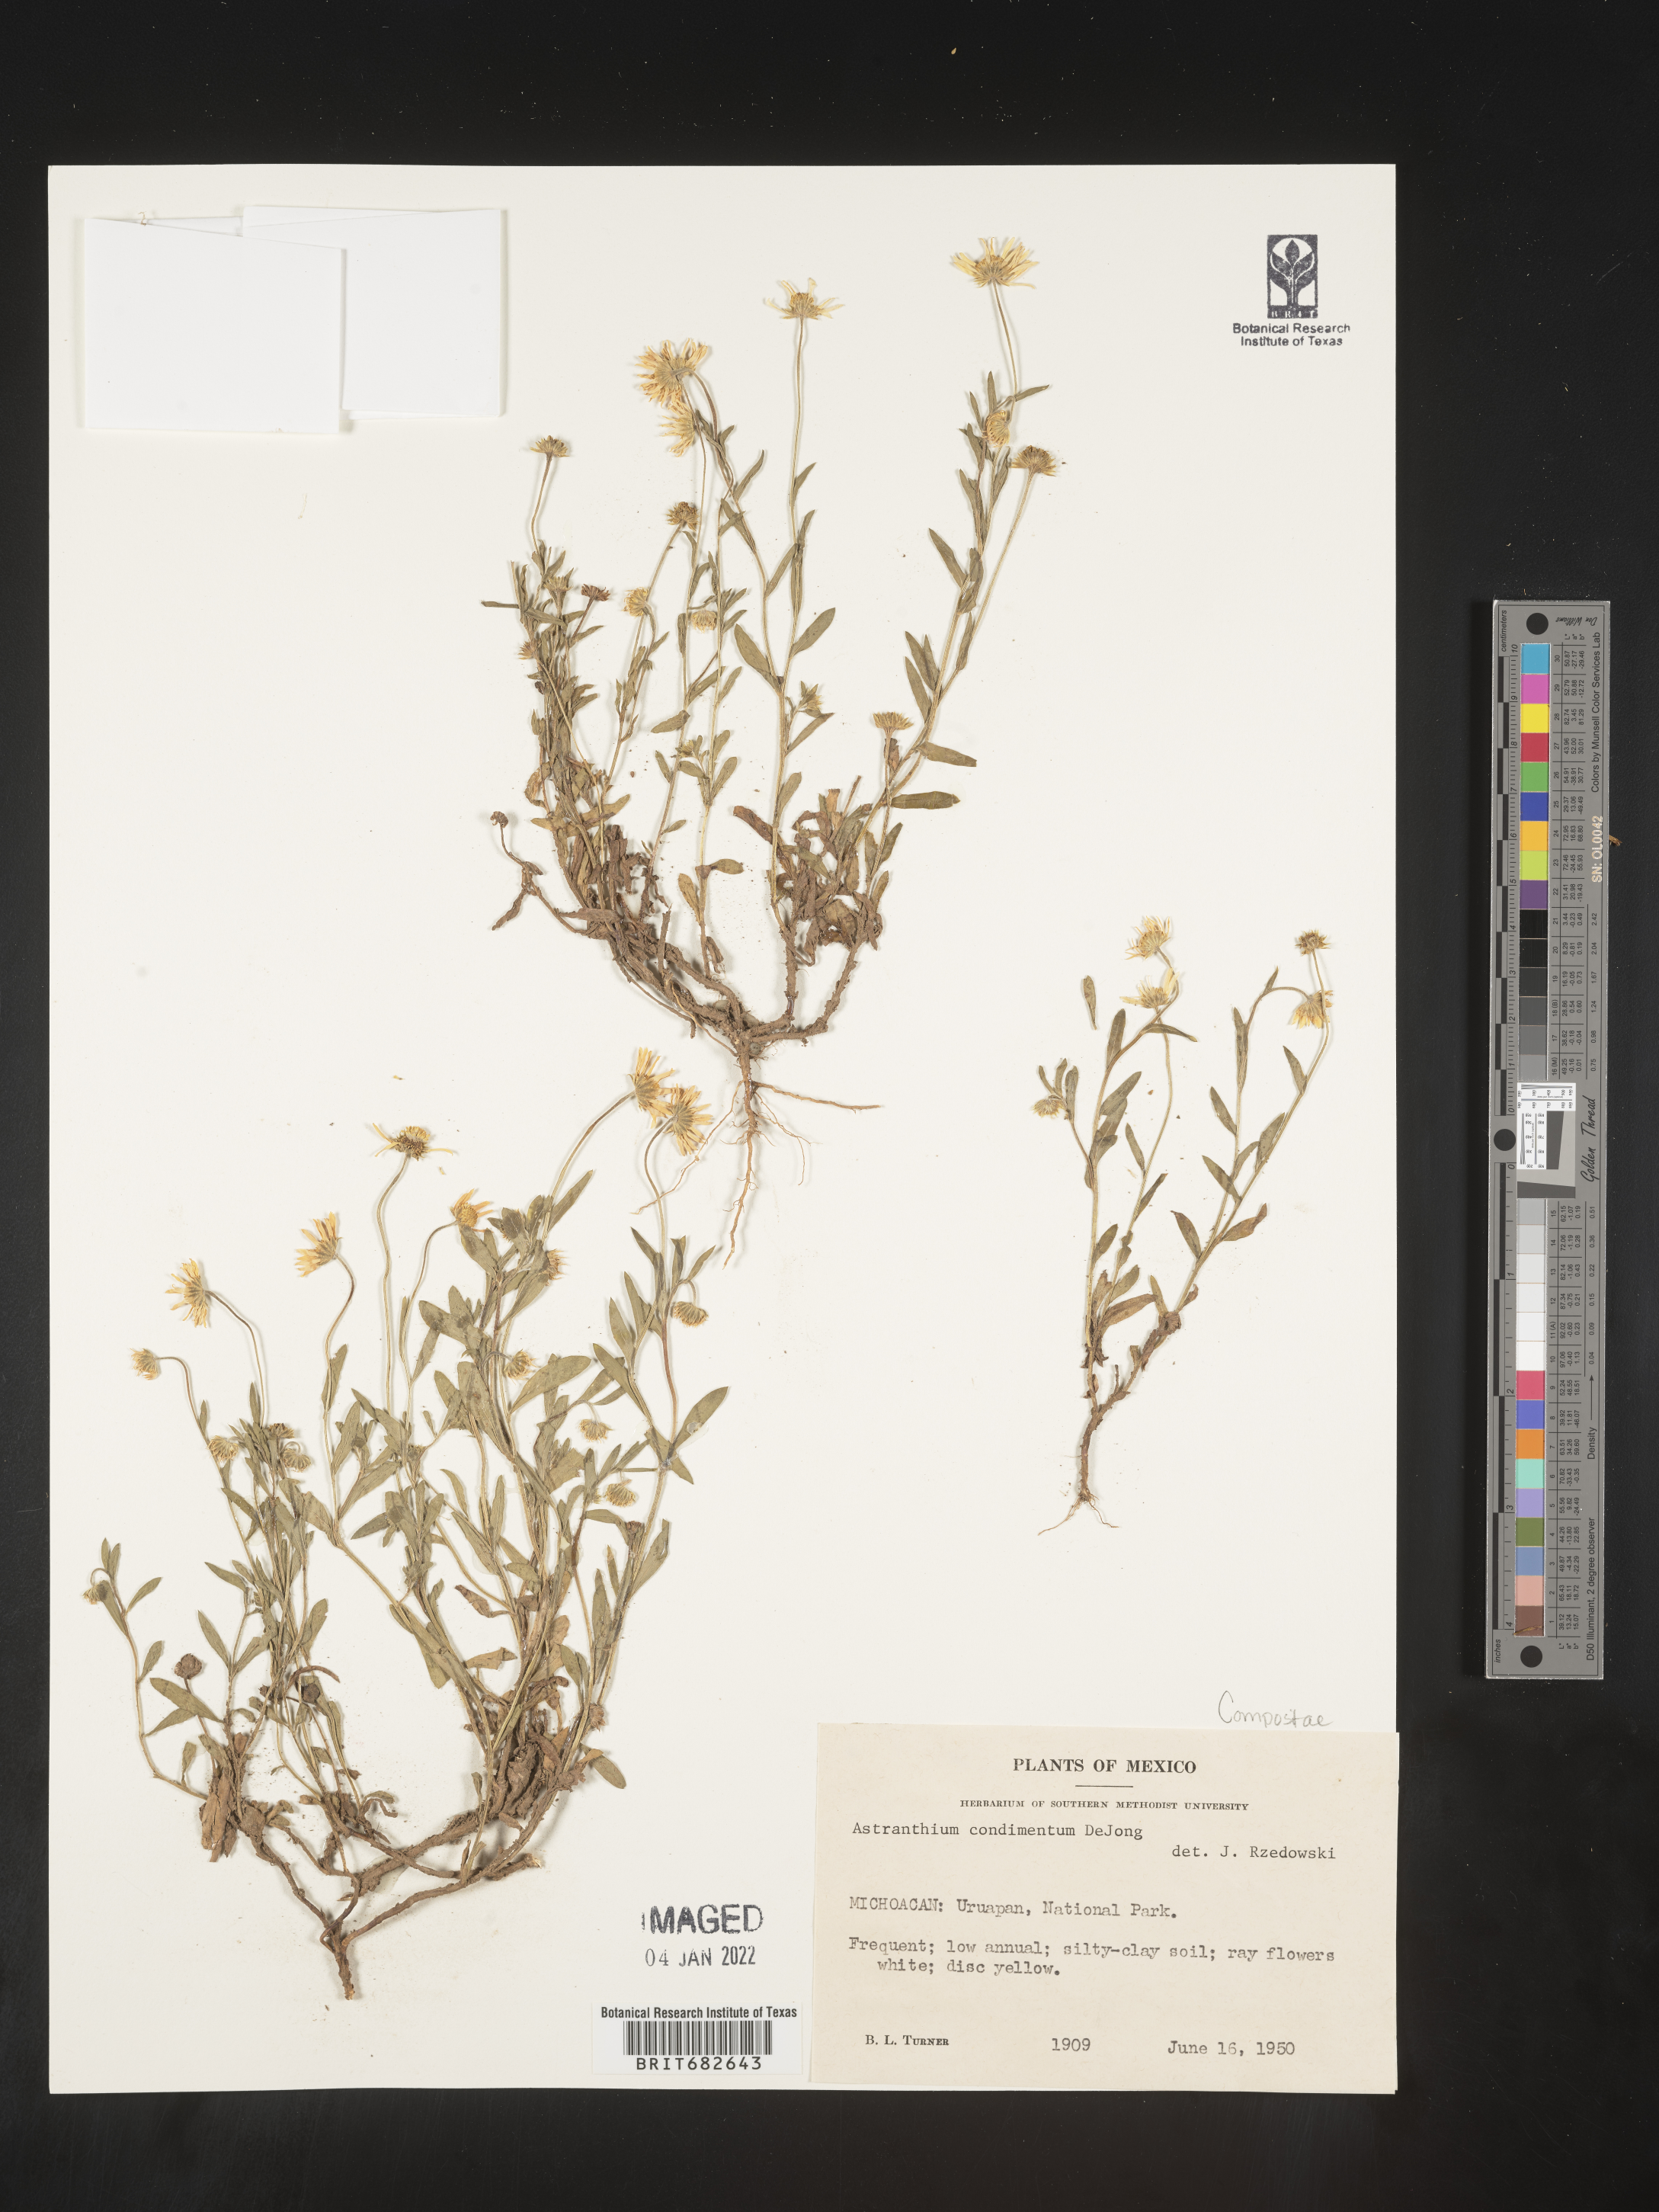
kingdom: Plantae
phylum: Tracheophyta
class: Magnoliopsida
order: Asterales
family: Asteraceae
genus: Astranthium
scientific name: Astranthium
